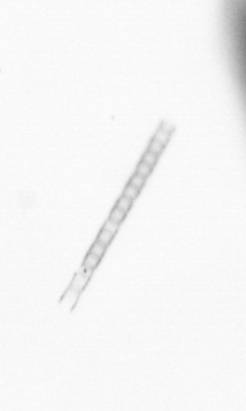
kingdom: Chromista
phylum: Ochrophyta
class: Bacillariophyceae
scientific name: Bacillariophyceae
